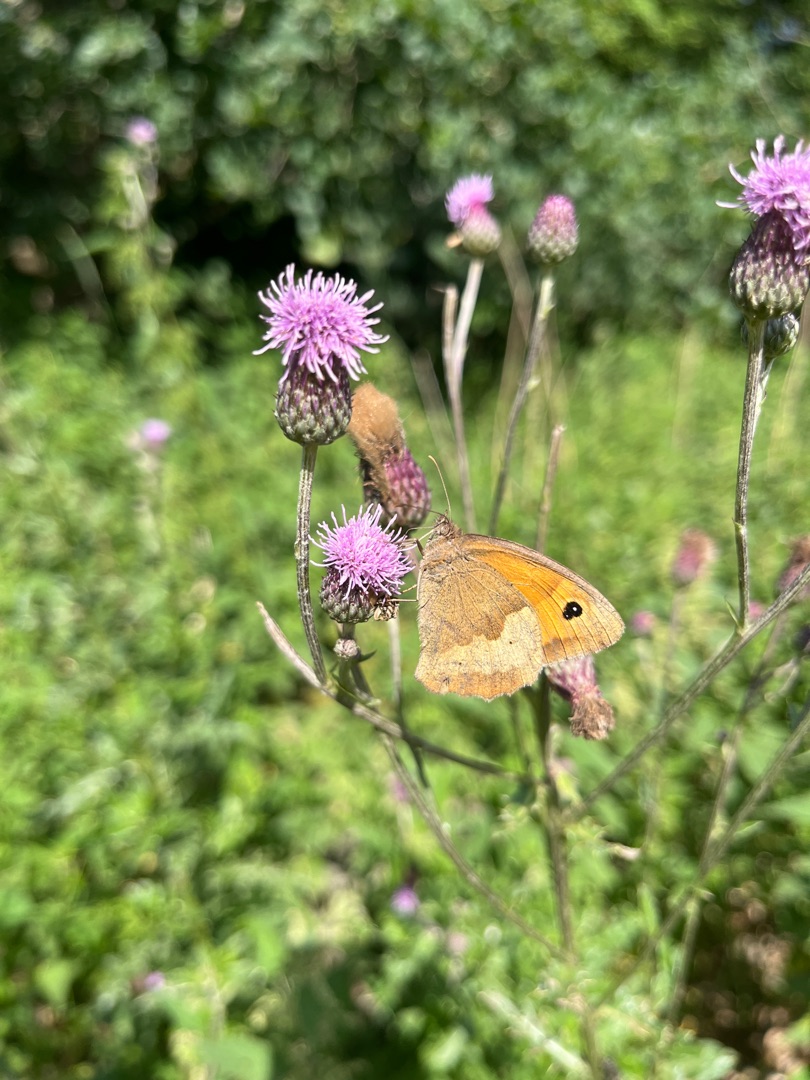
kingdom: Animalia
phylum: Arthropoda
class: Insecta
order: Lepidoptera
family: Nymphalidae
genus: Maniola
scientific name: Maniola jurtina
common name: Græsrandøje
